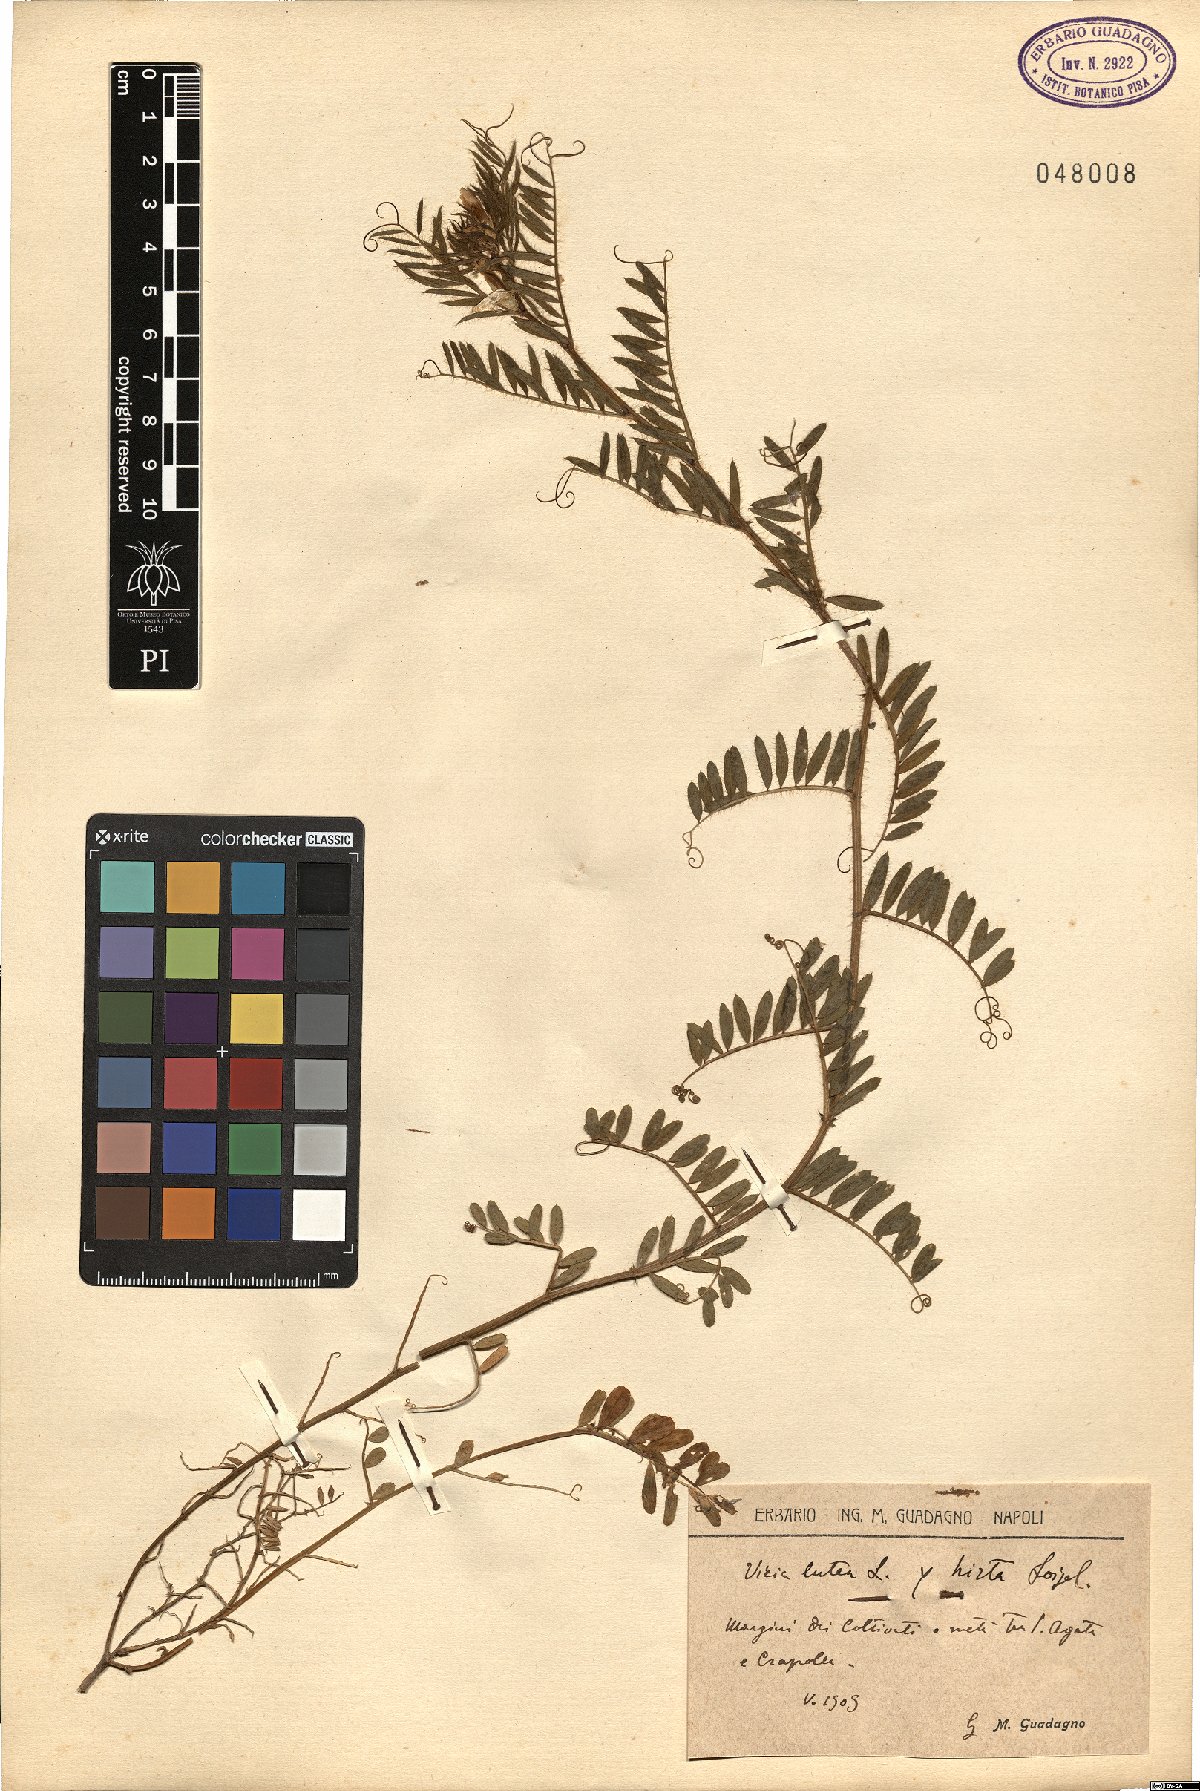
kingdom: Plantae
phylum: Tracheophyta
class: Magnoliopsida
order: Fabales
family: Fabaceae
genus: Vicia
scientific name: Vicia lutea
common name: Smooth yellow vetch
